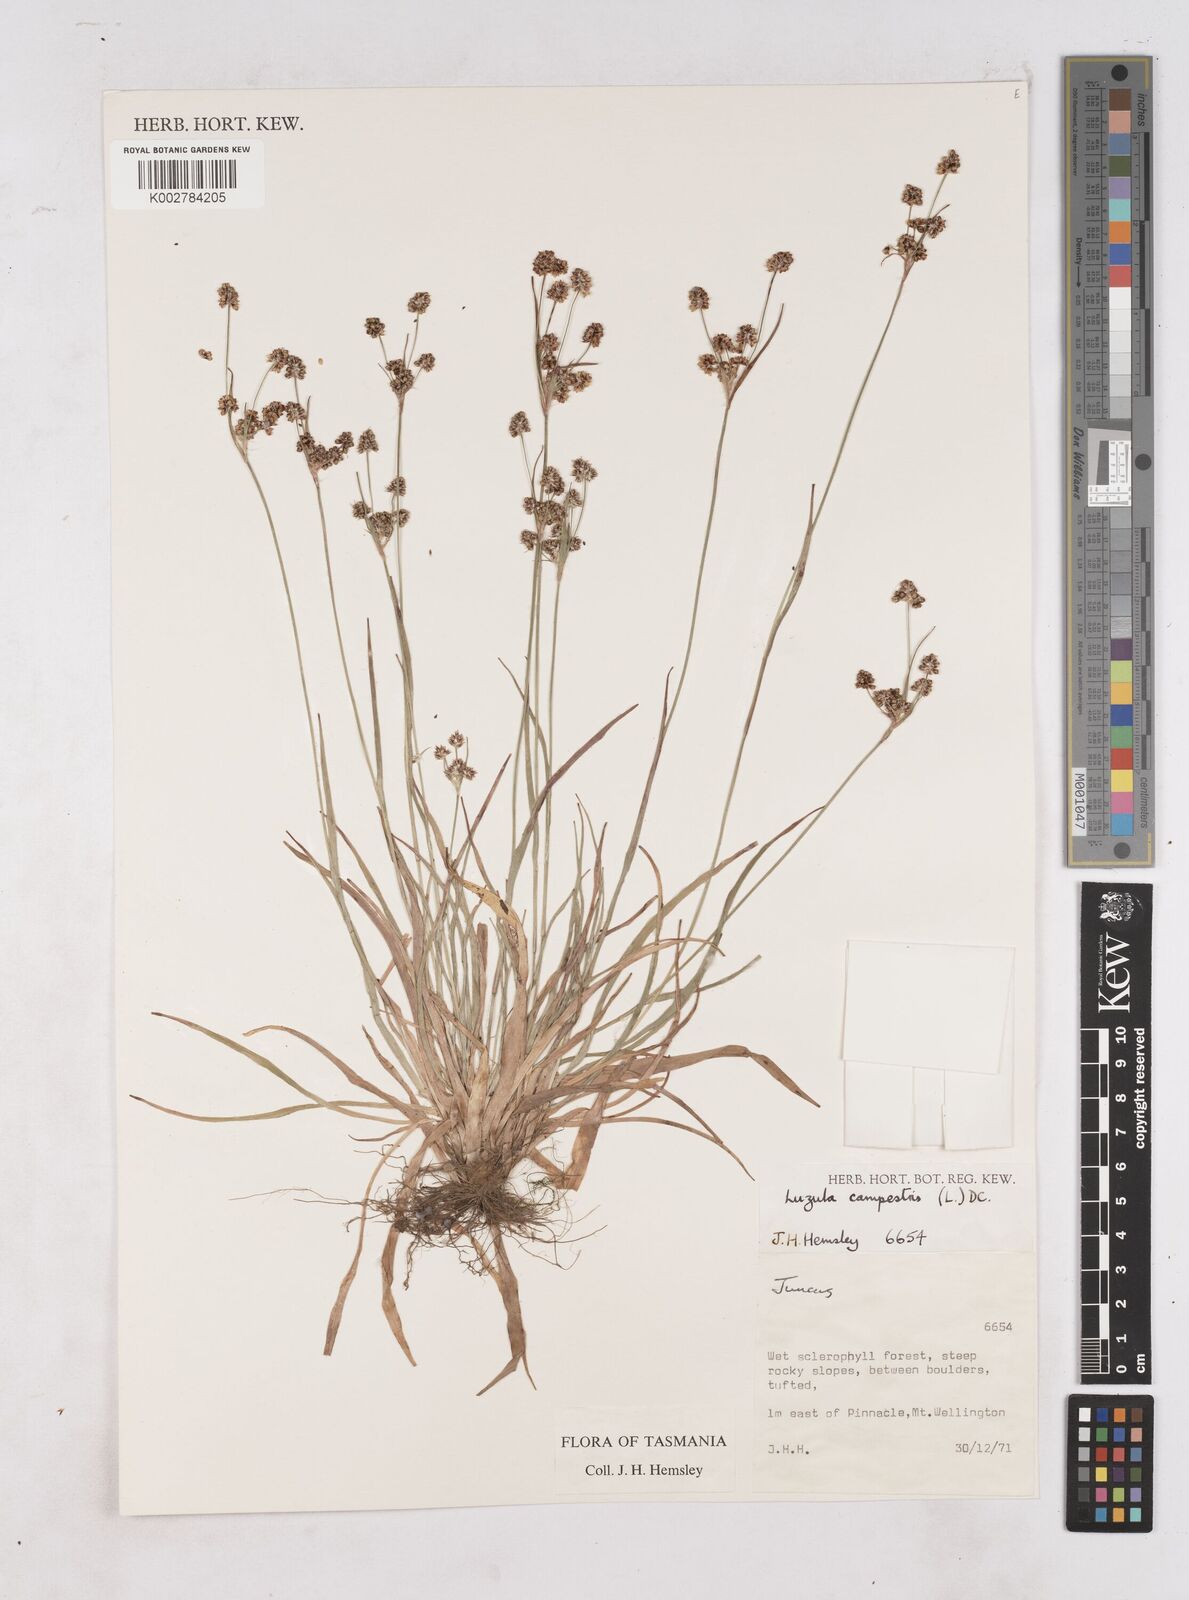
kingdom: Plantae
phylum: Tracheophyta
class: Liliopsida
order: Poales
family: Juncaceae
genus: Luzula
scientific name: Luzula campestris
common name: Field wood-rush
